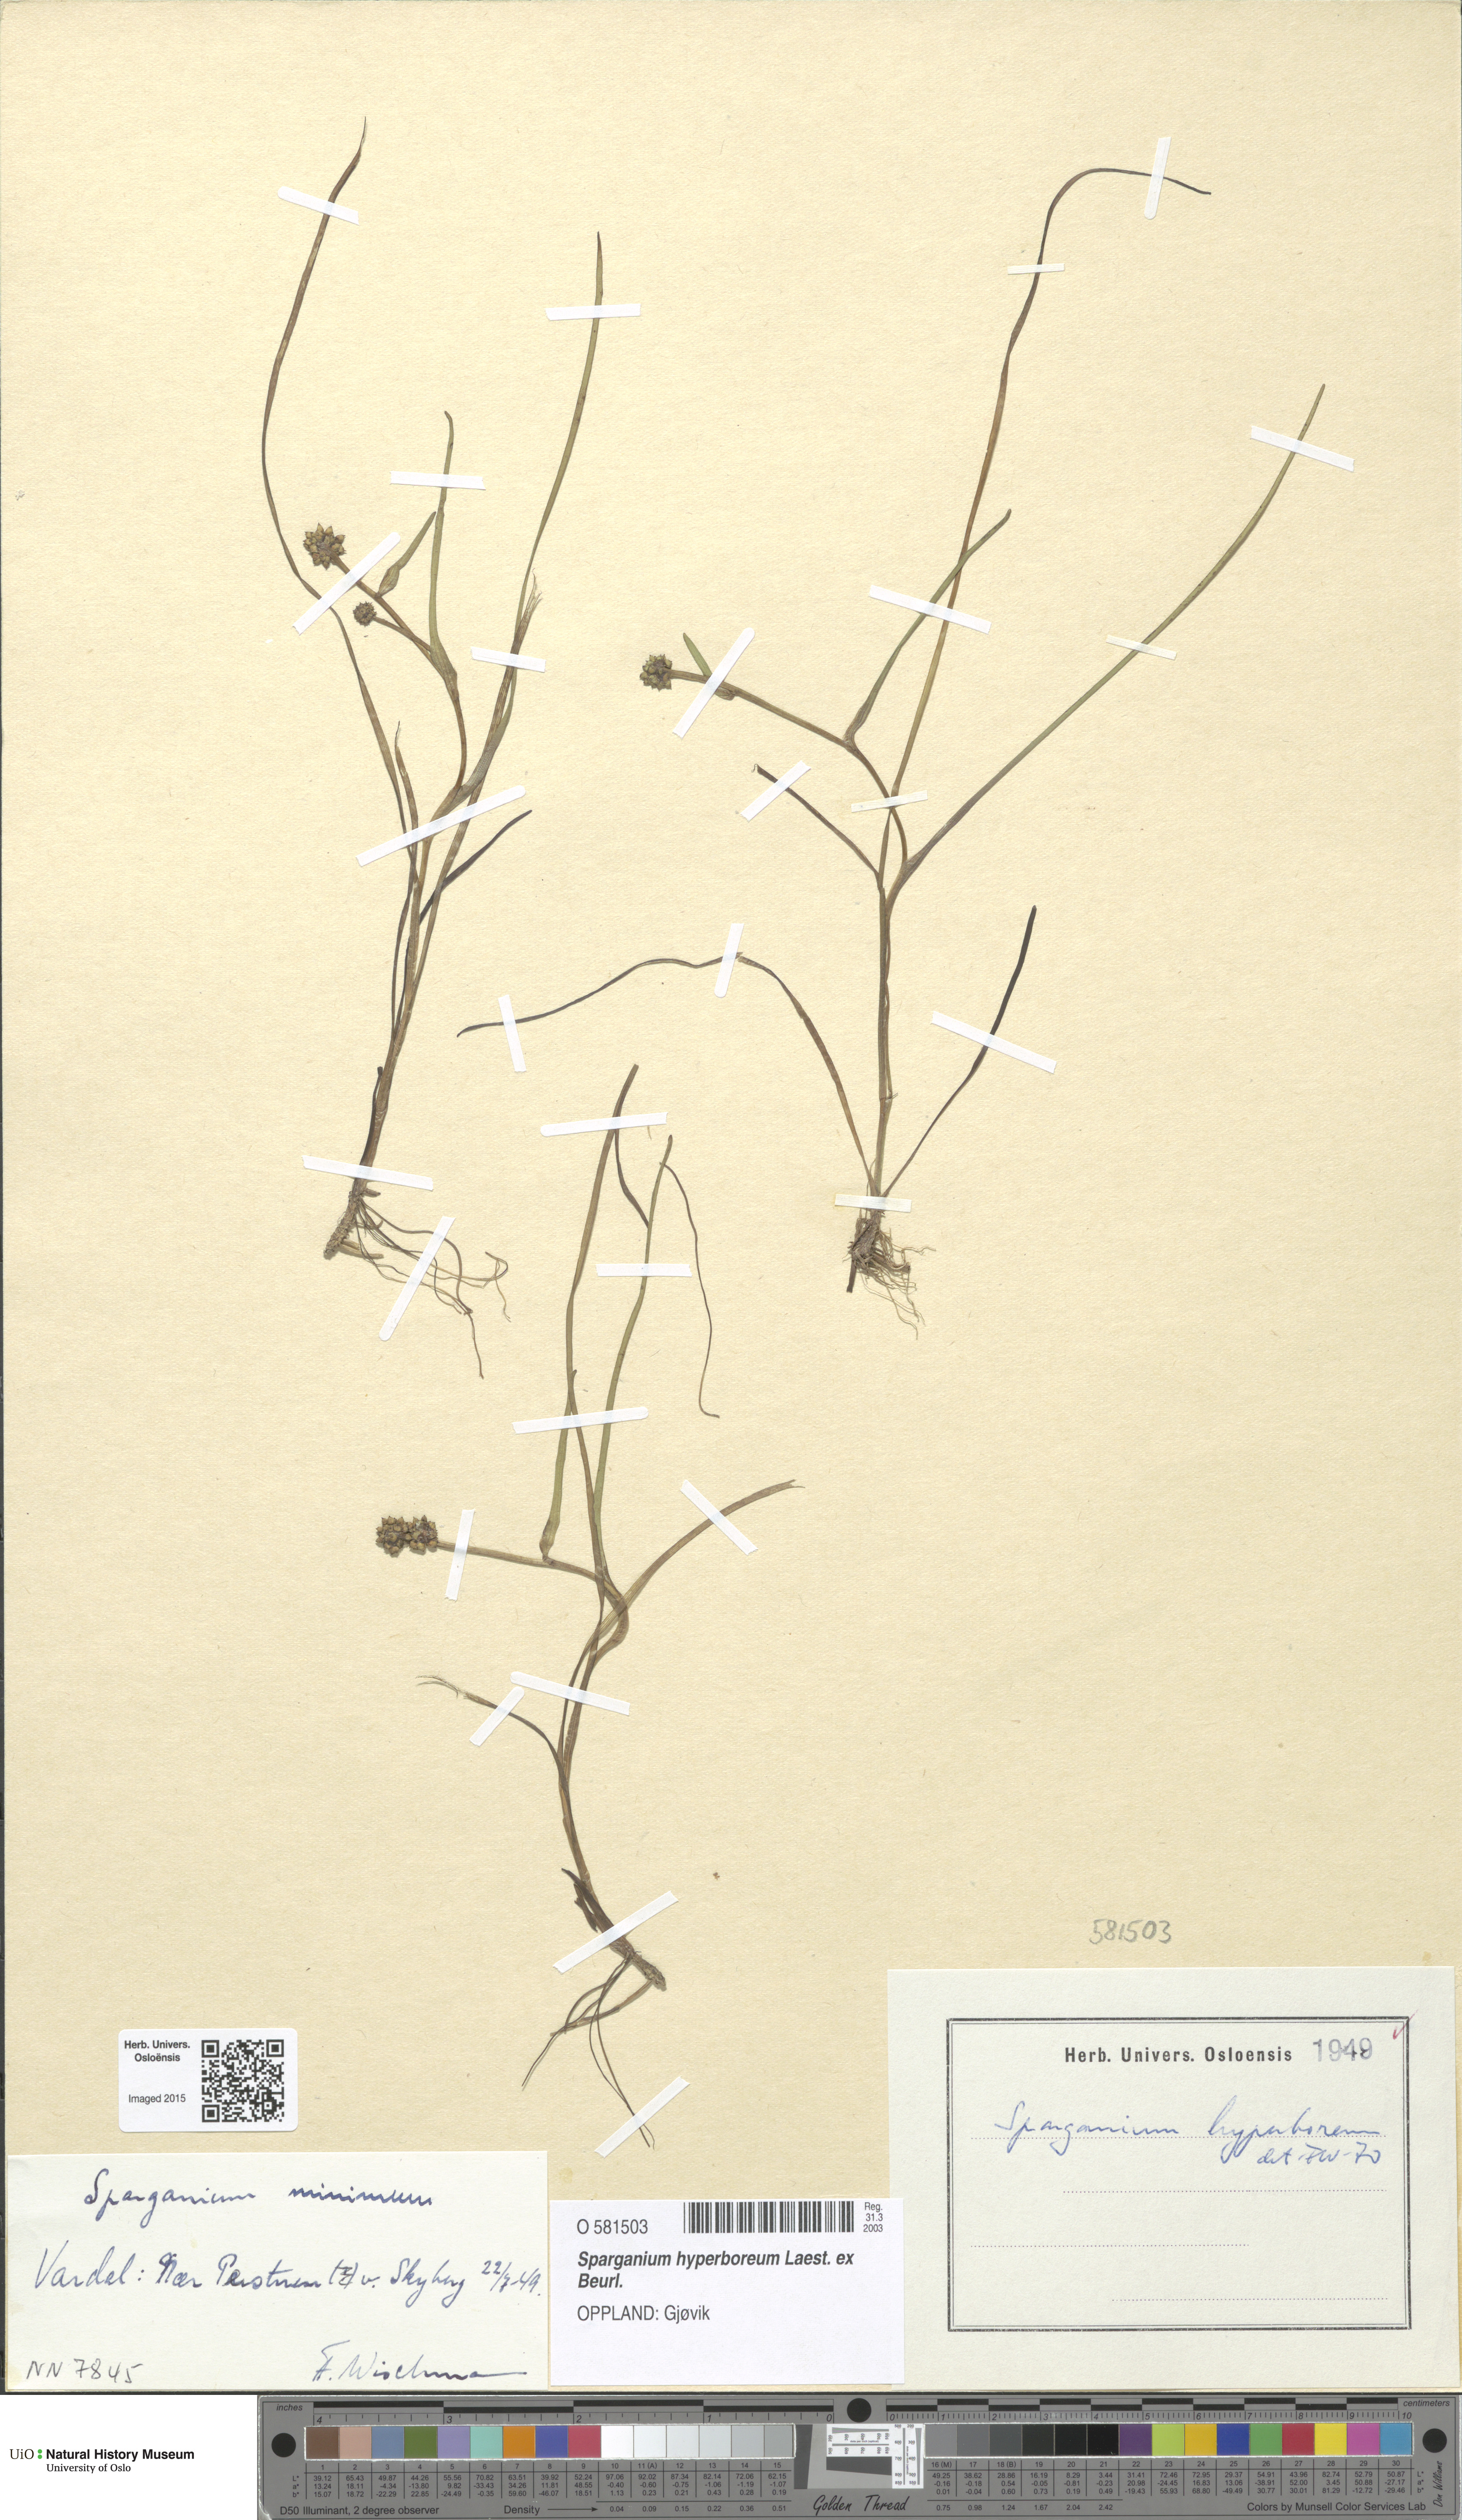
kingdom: Plantae
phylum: Tracheophyta
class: Liliopsida
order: Poales
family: Typhaceae
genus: Sparganium
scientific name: Sparganium hyperboreum
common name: Arctic burreed
